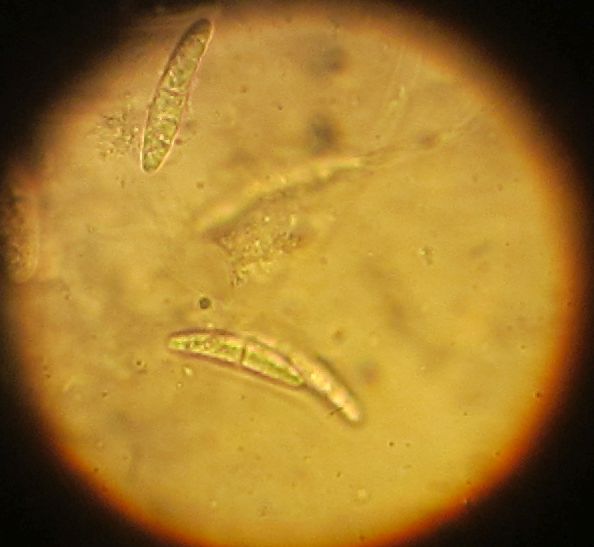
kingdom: Fungi
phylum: Ascomycota
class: Sordariomycetes
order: Chaetosphaeriales
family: Chaetosphaeriaceae
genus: Chaetosphaeria
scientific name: Chaetosphaeria
